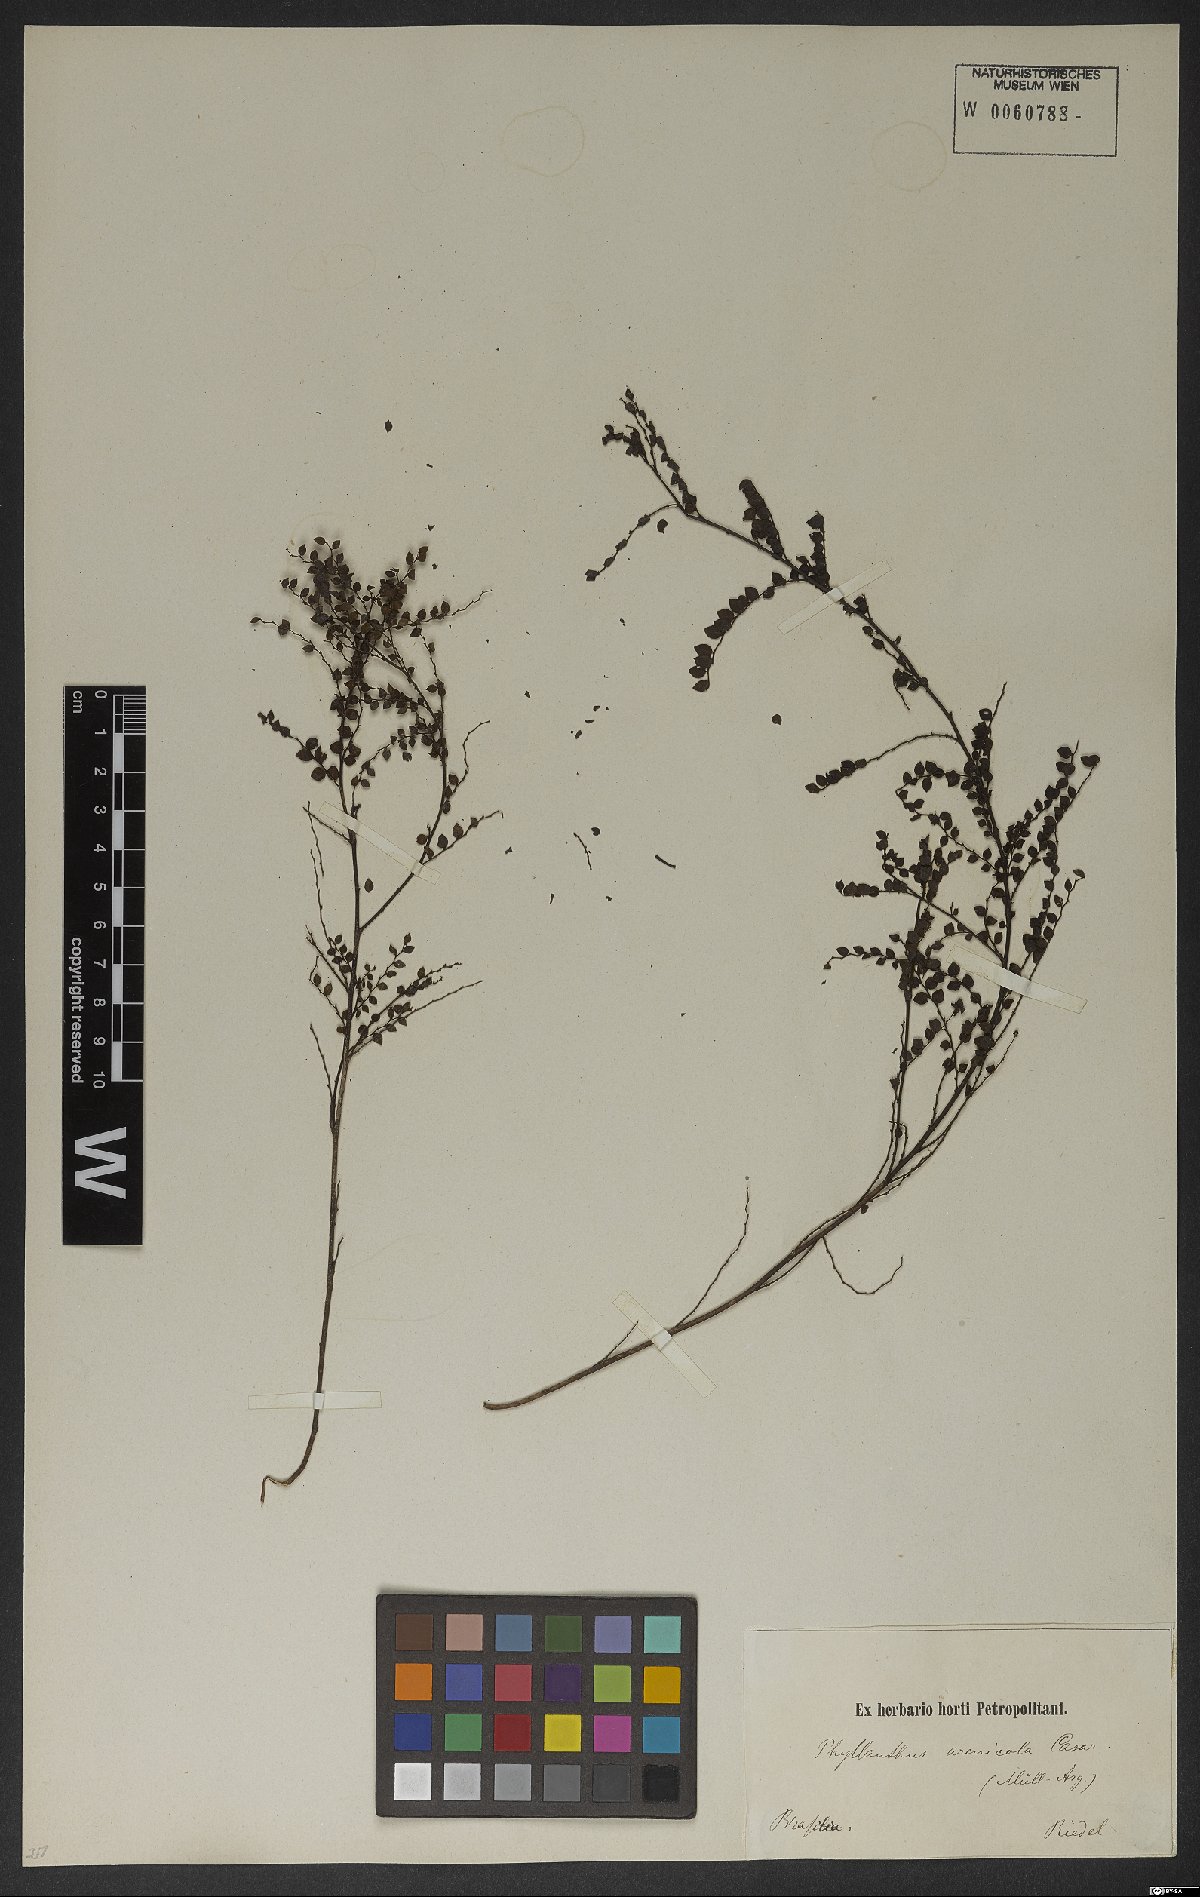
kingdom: Plantae
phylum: Tracheophyta
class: Magnoliopsida
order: Malpighiales
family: Phyllanthaceae
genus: Phyllanthus
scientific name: Phyllanthus arenicola
